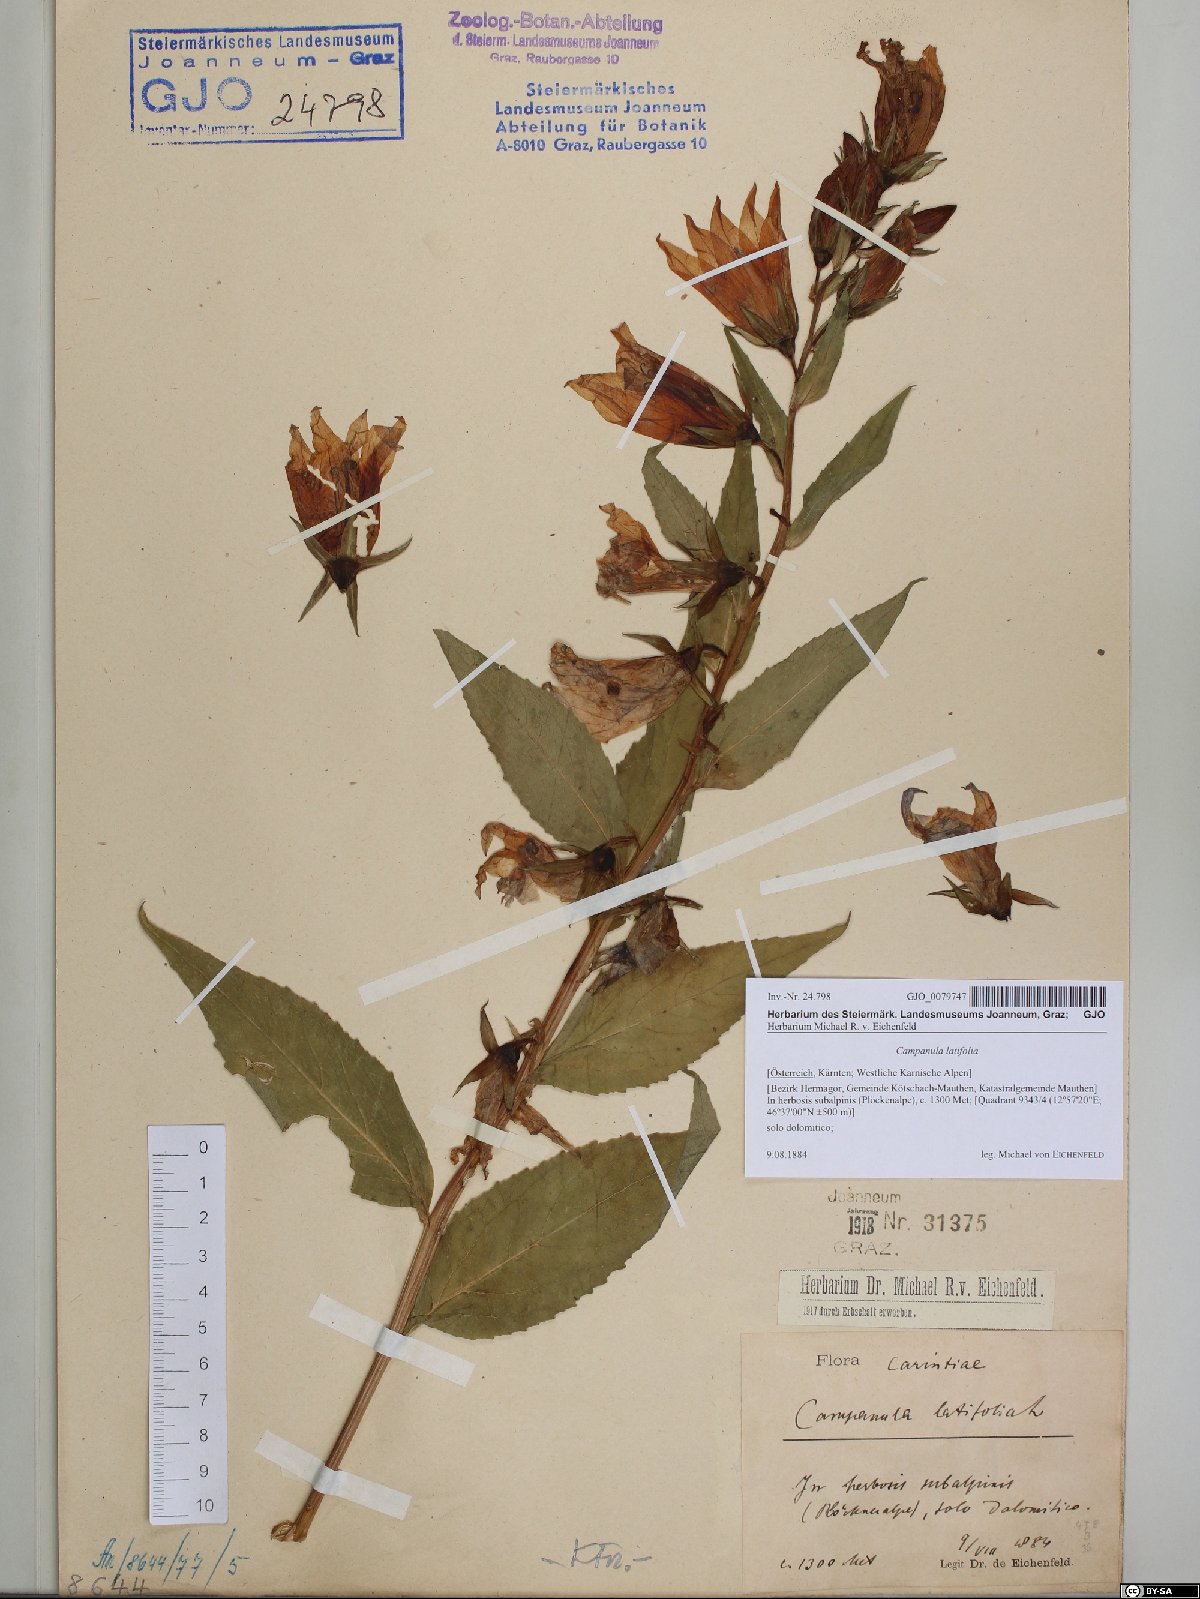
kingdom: Plantae
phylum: Tracheophyta
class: Magnoliopsida
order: Asterales
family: Campanulaceae
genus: Campanula
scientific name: Campanula latifolia
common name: Giant bellflower
